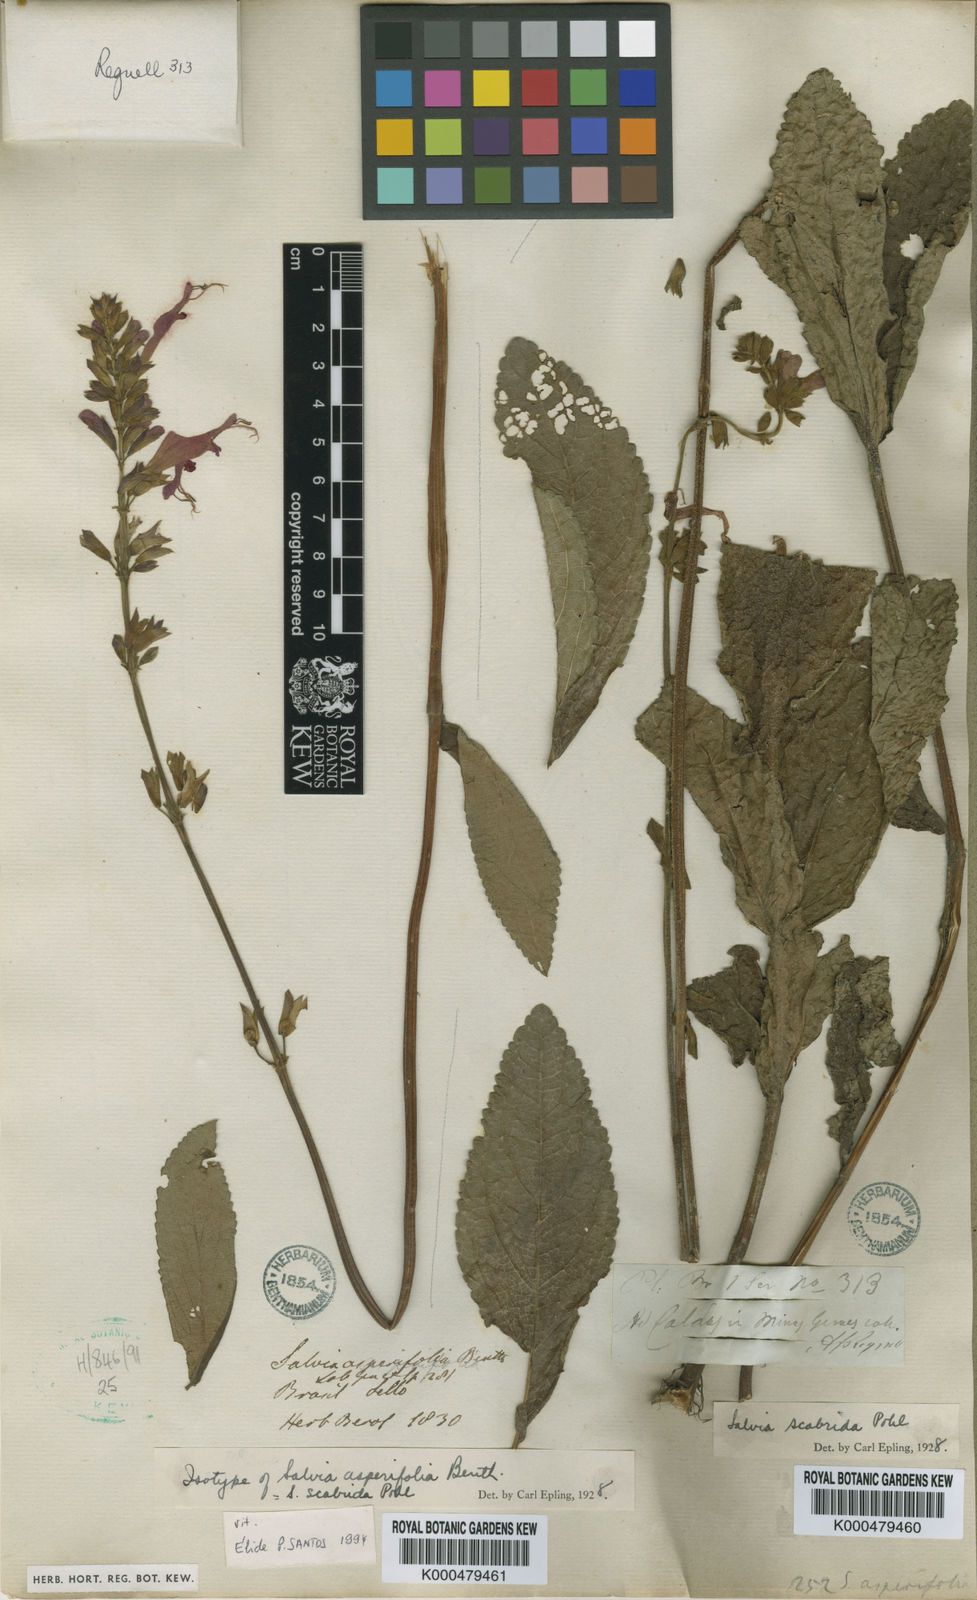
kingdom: Plantae
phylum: Tracheophyta
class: Magnoliopsida
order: Lamiales
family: Lamiaceae
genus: Salvia
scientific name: Salvia scabrida
